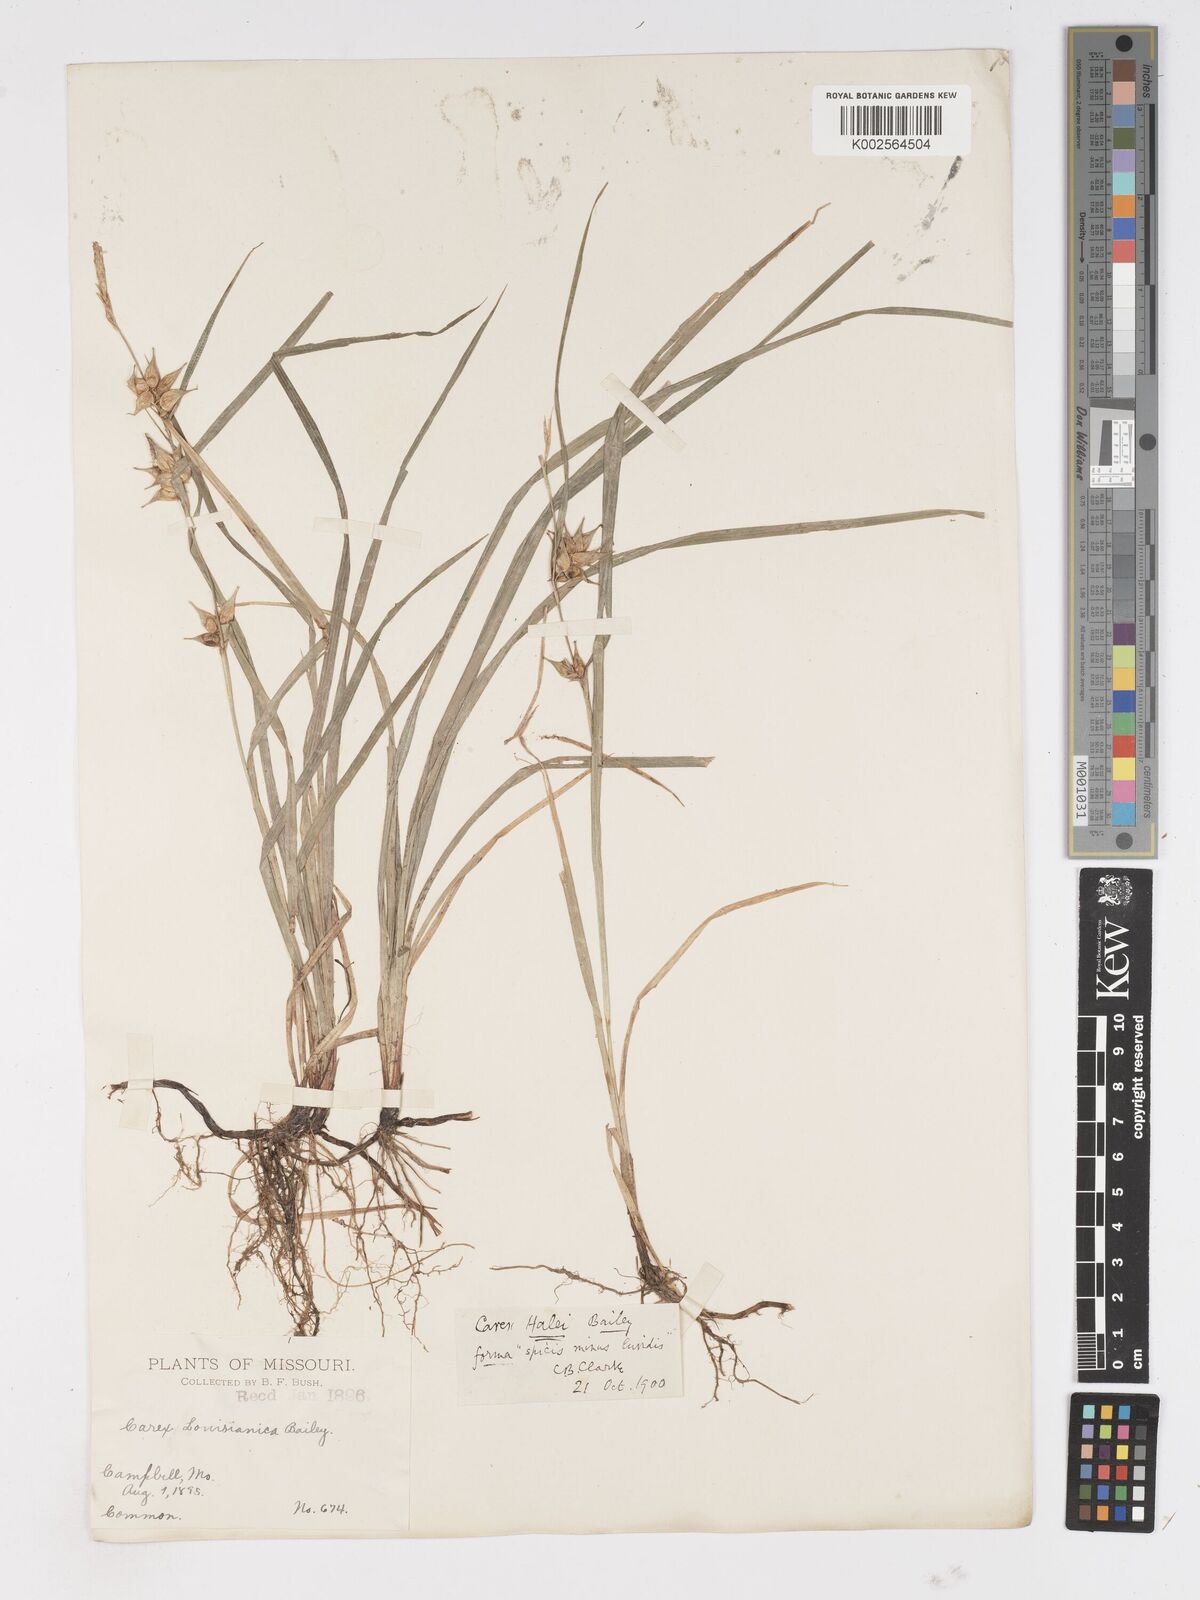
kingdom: Plantae
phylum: Tracheophyta
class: Liliopsida
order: Poales
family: Cyperaceae
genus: Carex
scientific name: Carex louisianica
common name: Louisiana sedge
